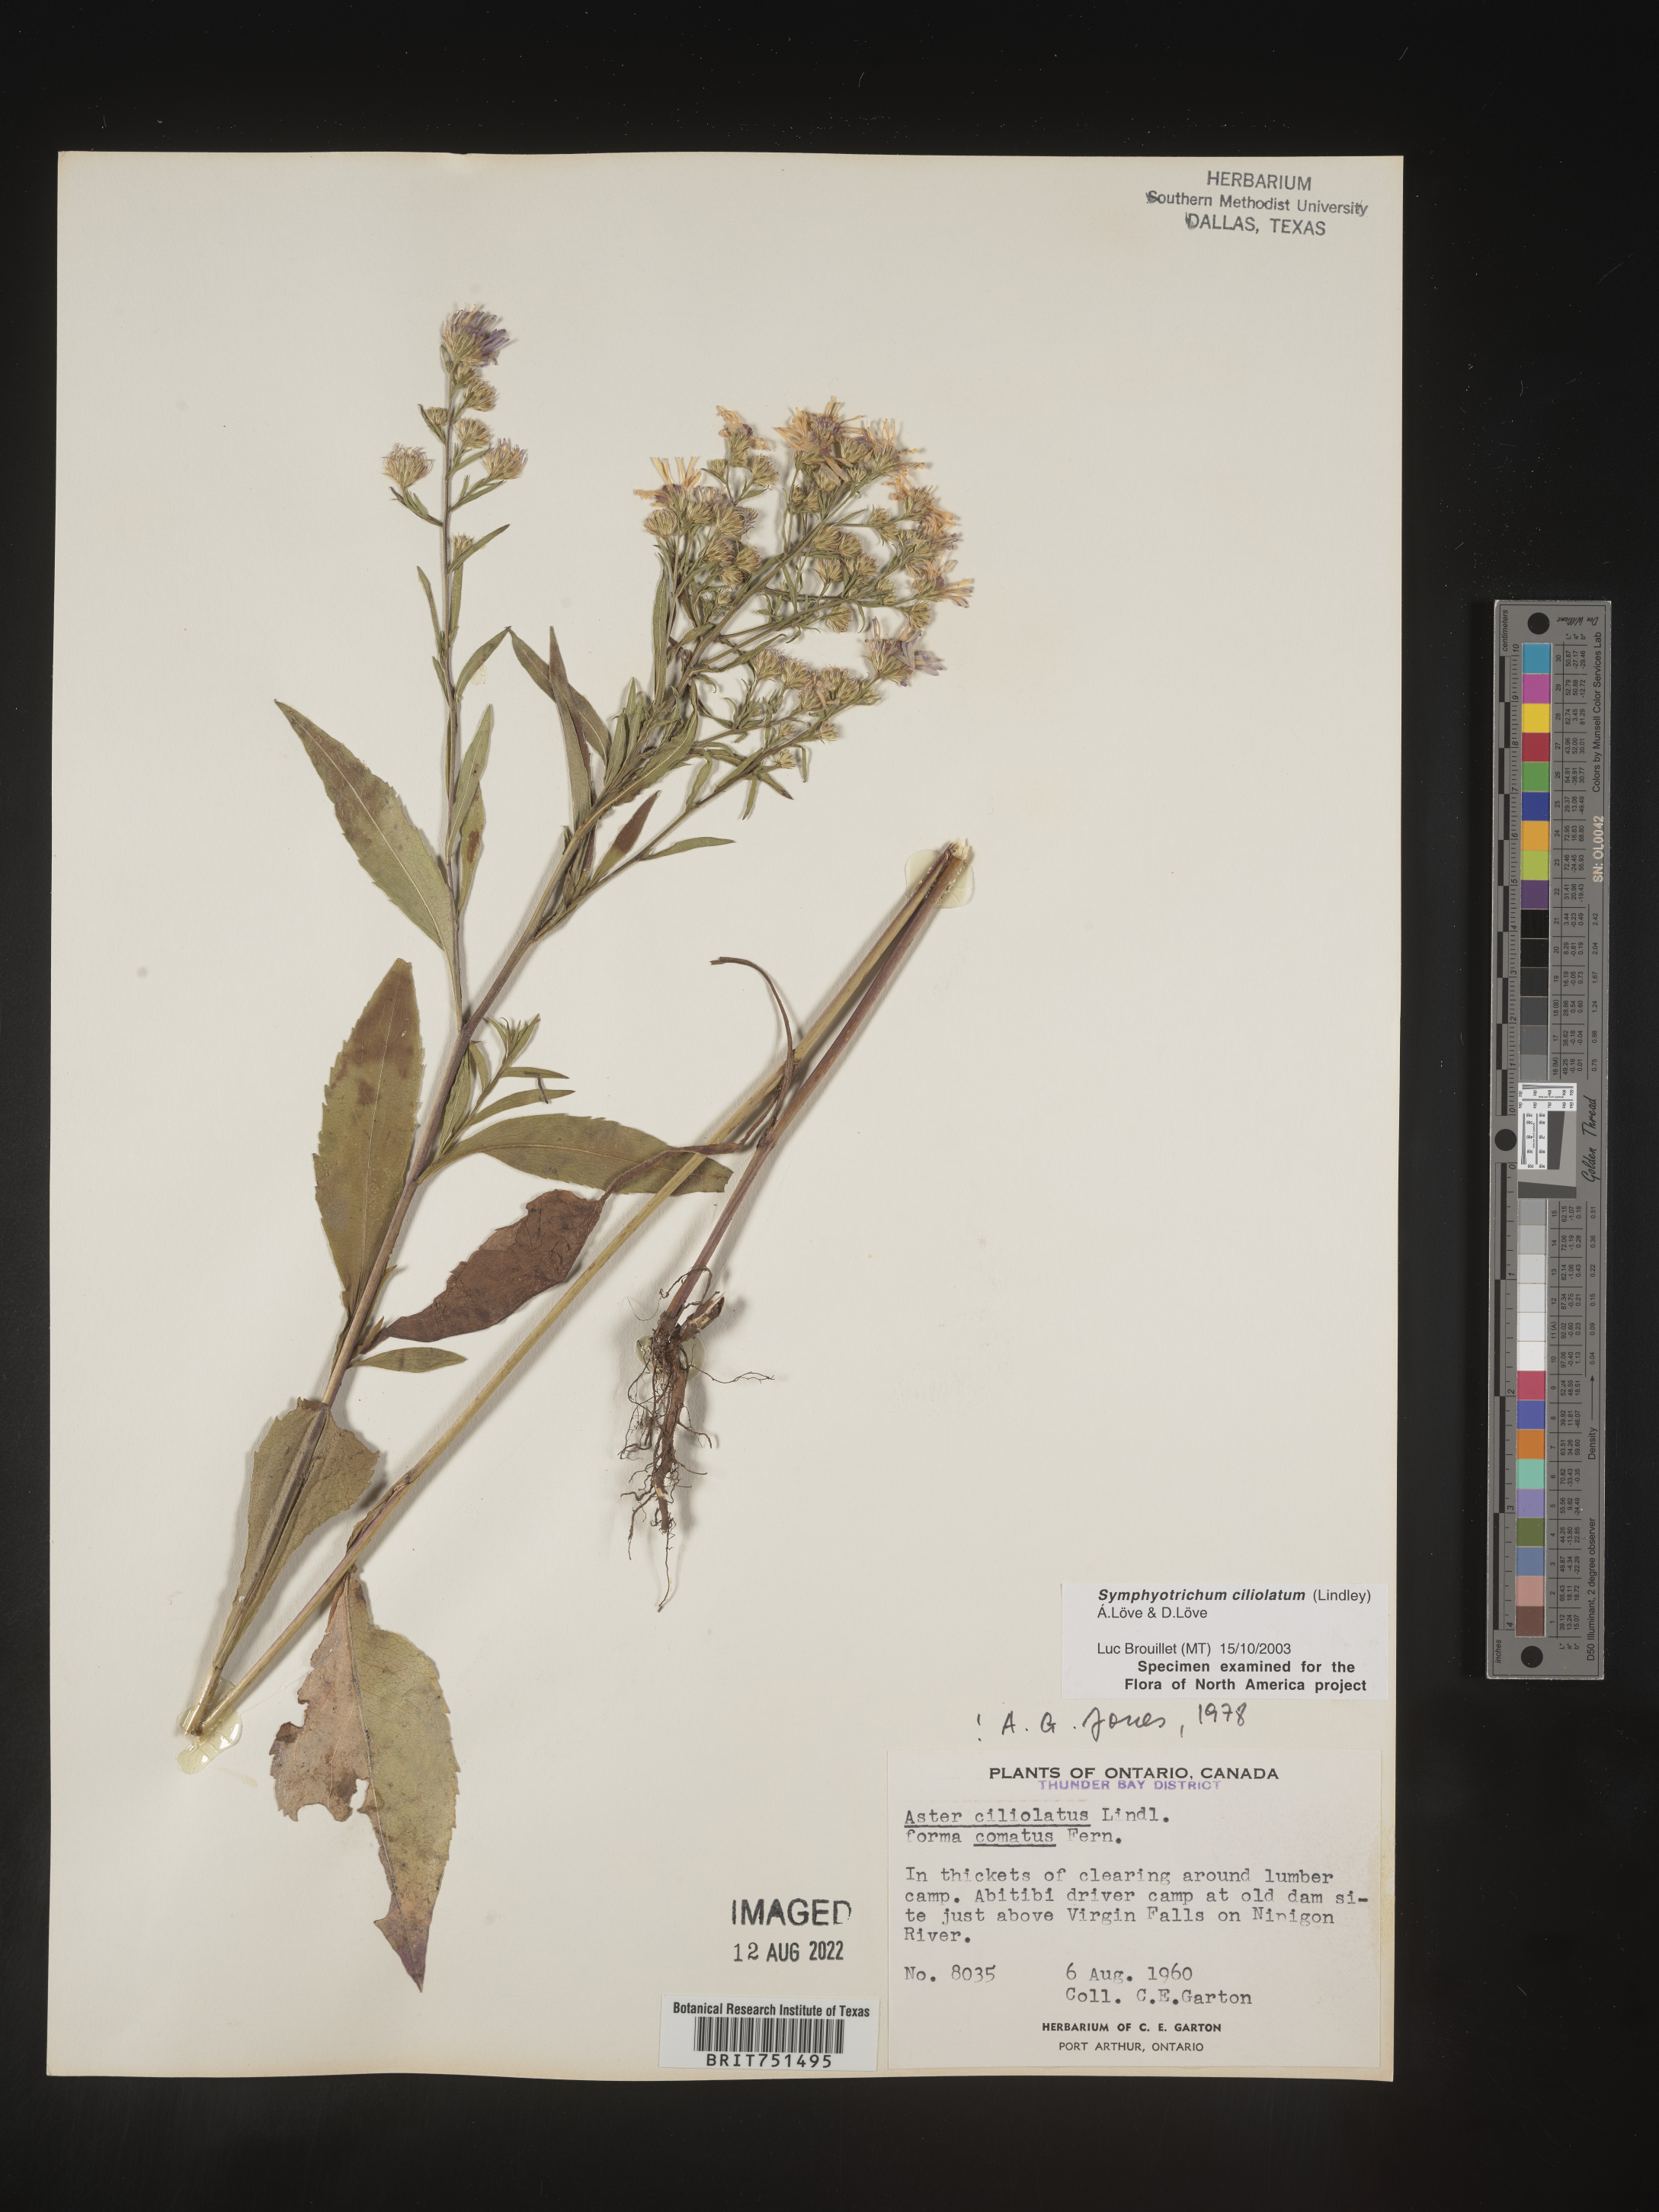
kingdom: Plantae
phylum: Tracheophyta
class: Magnoliopsida
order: Asterales
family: Asteraceae
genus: Symphyotrichum
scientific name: Symphyotrichum ciliolatum
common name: Fringed blue aster
